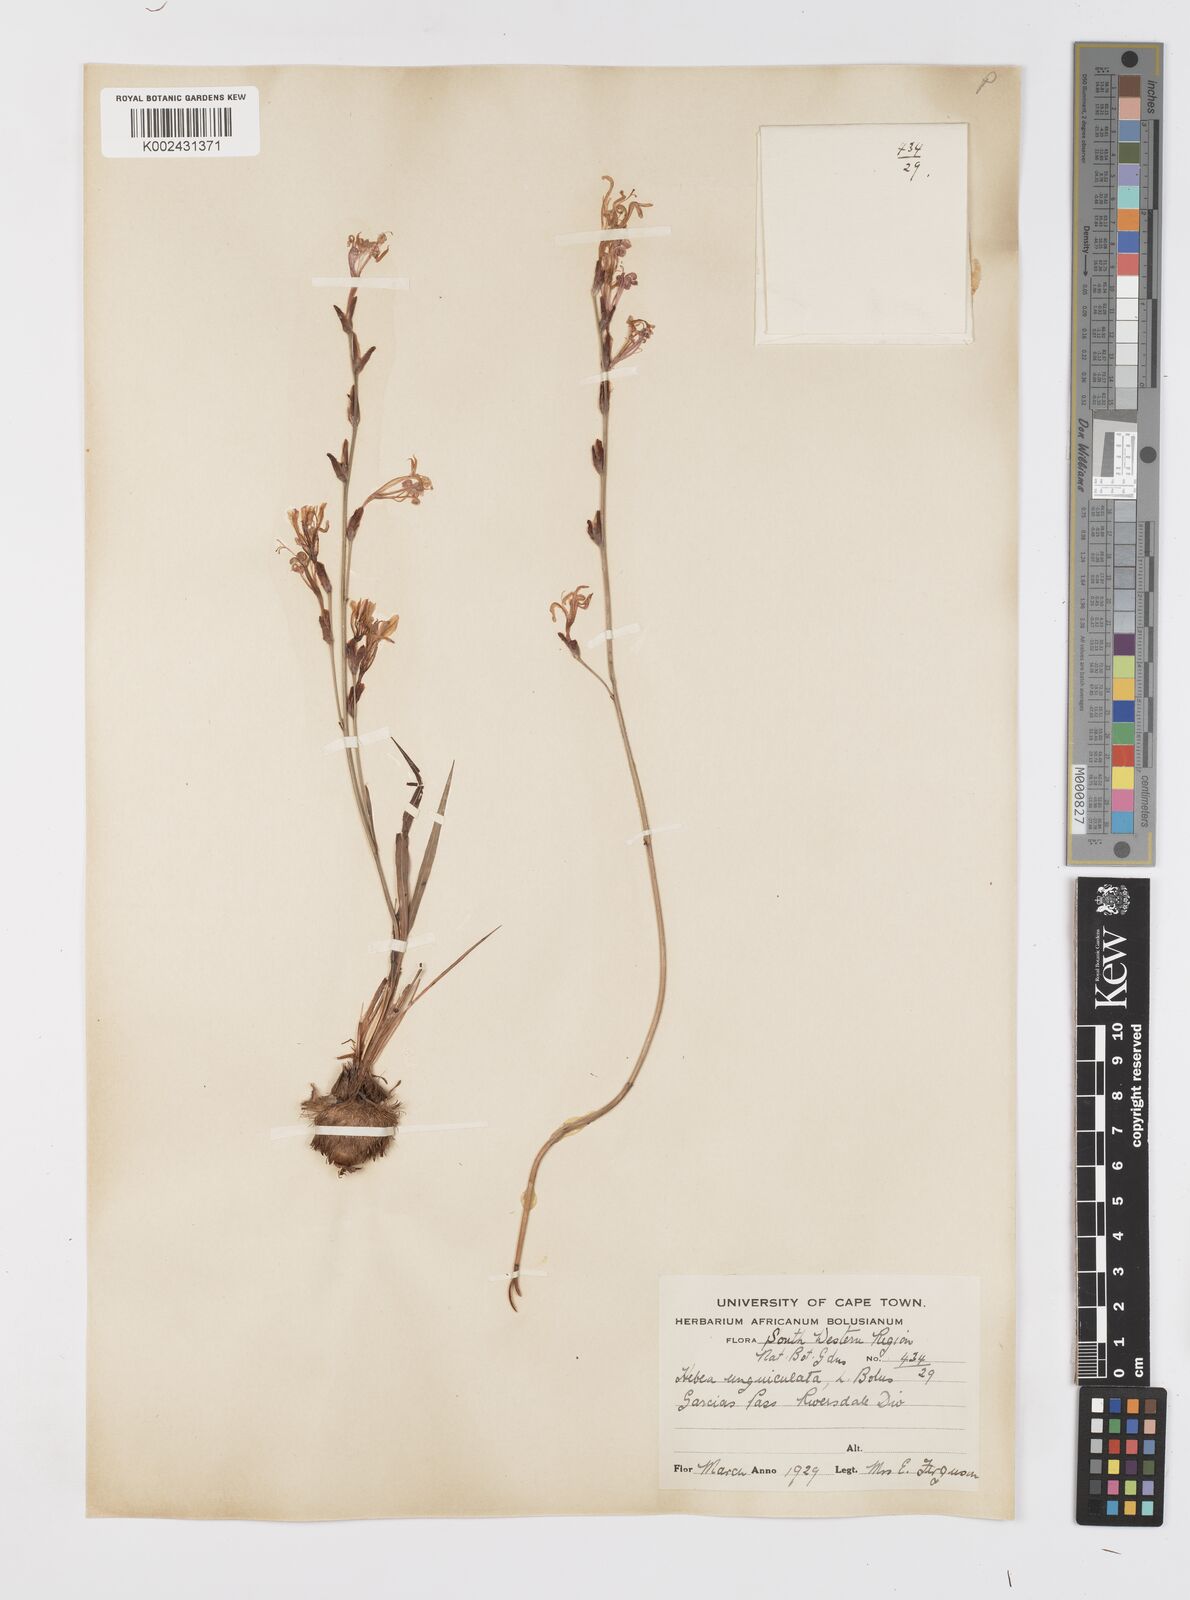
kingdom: Plantae
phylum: Tracheophyta
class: Liliopsida
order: Asparagales
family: Iridaceae
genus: Tritoniopsis
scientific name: Tritoniopsis ramosa
